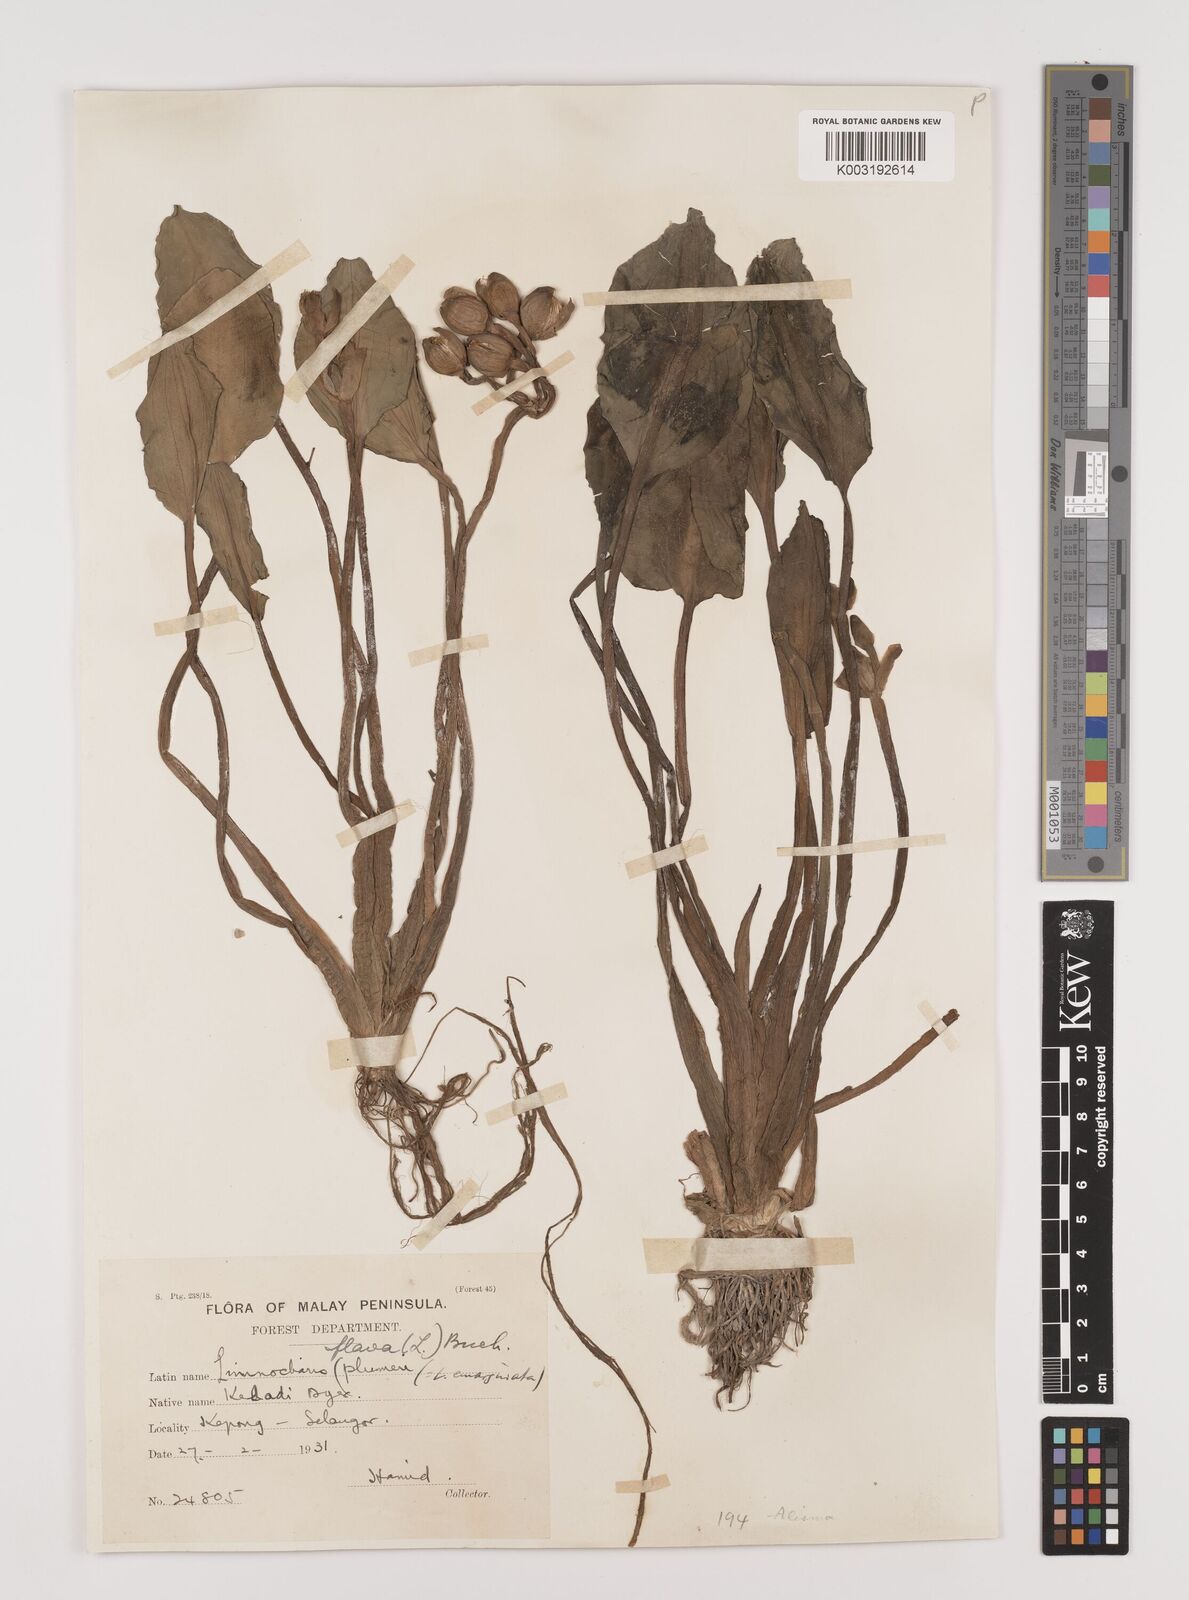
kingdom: Plantae
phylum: Tracheophyta
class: Liliopsida
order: Alismatales
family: Alismataceae
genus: Limnocharis
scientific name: Limnocharis flava
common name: Sawah-flower-rush
